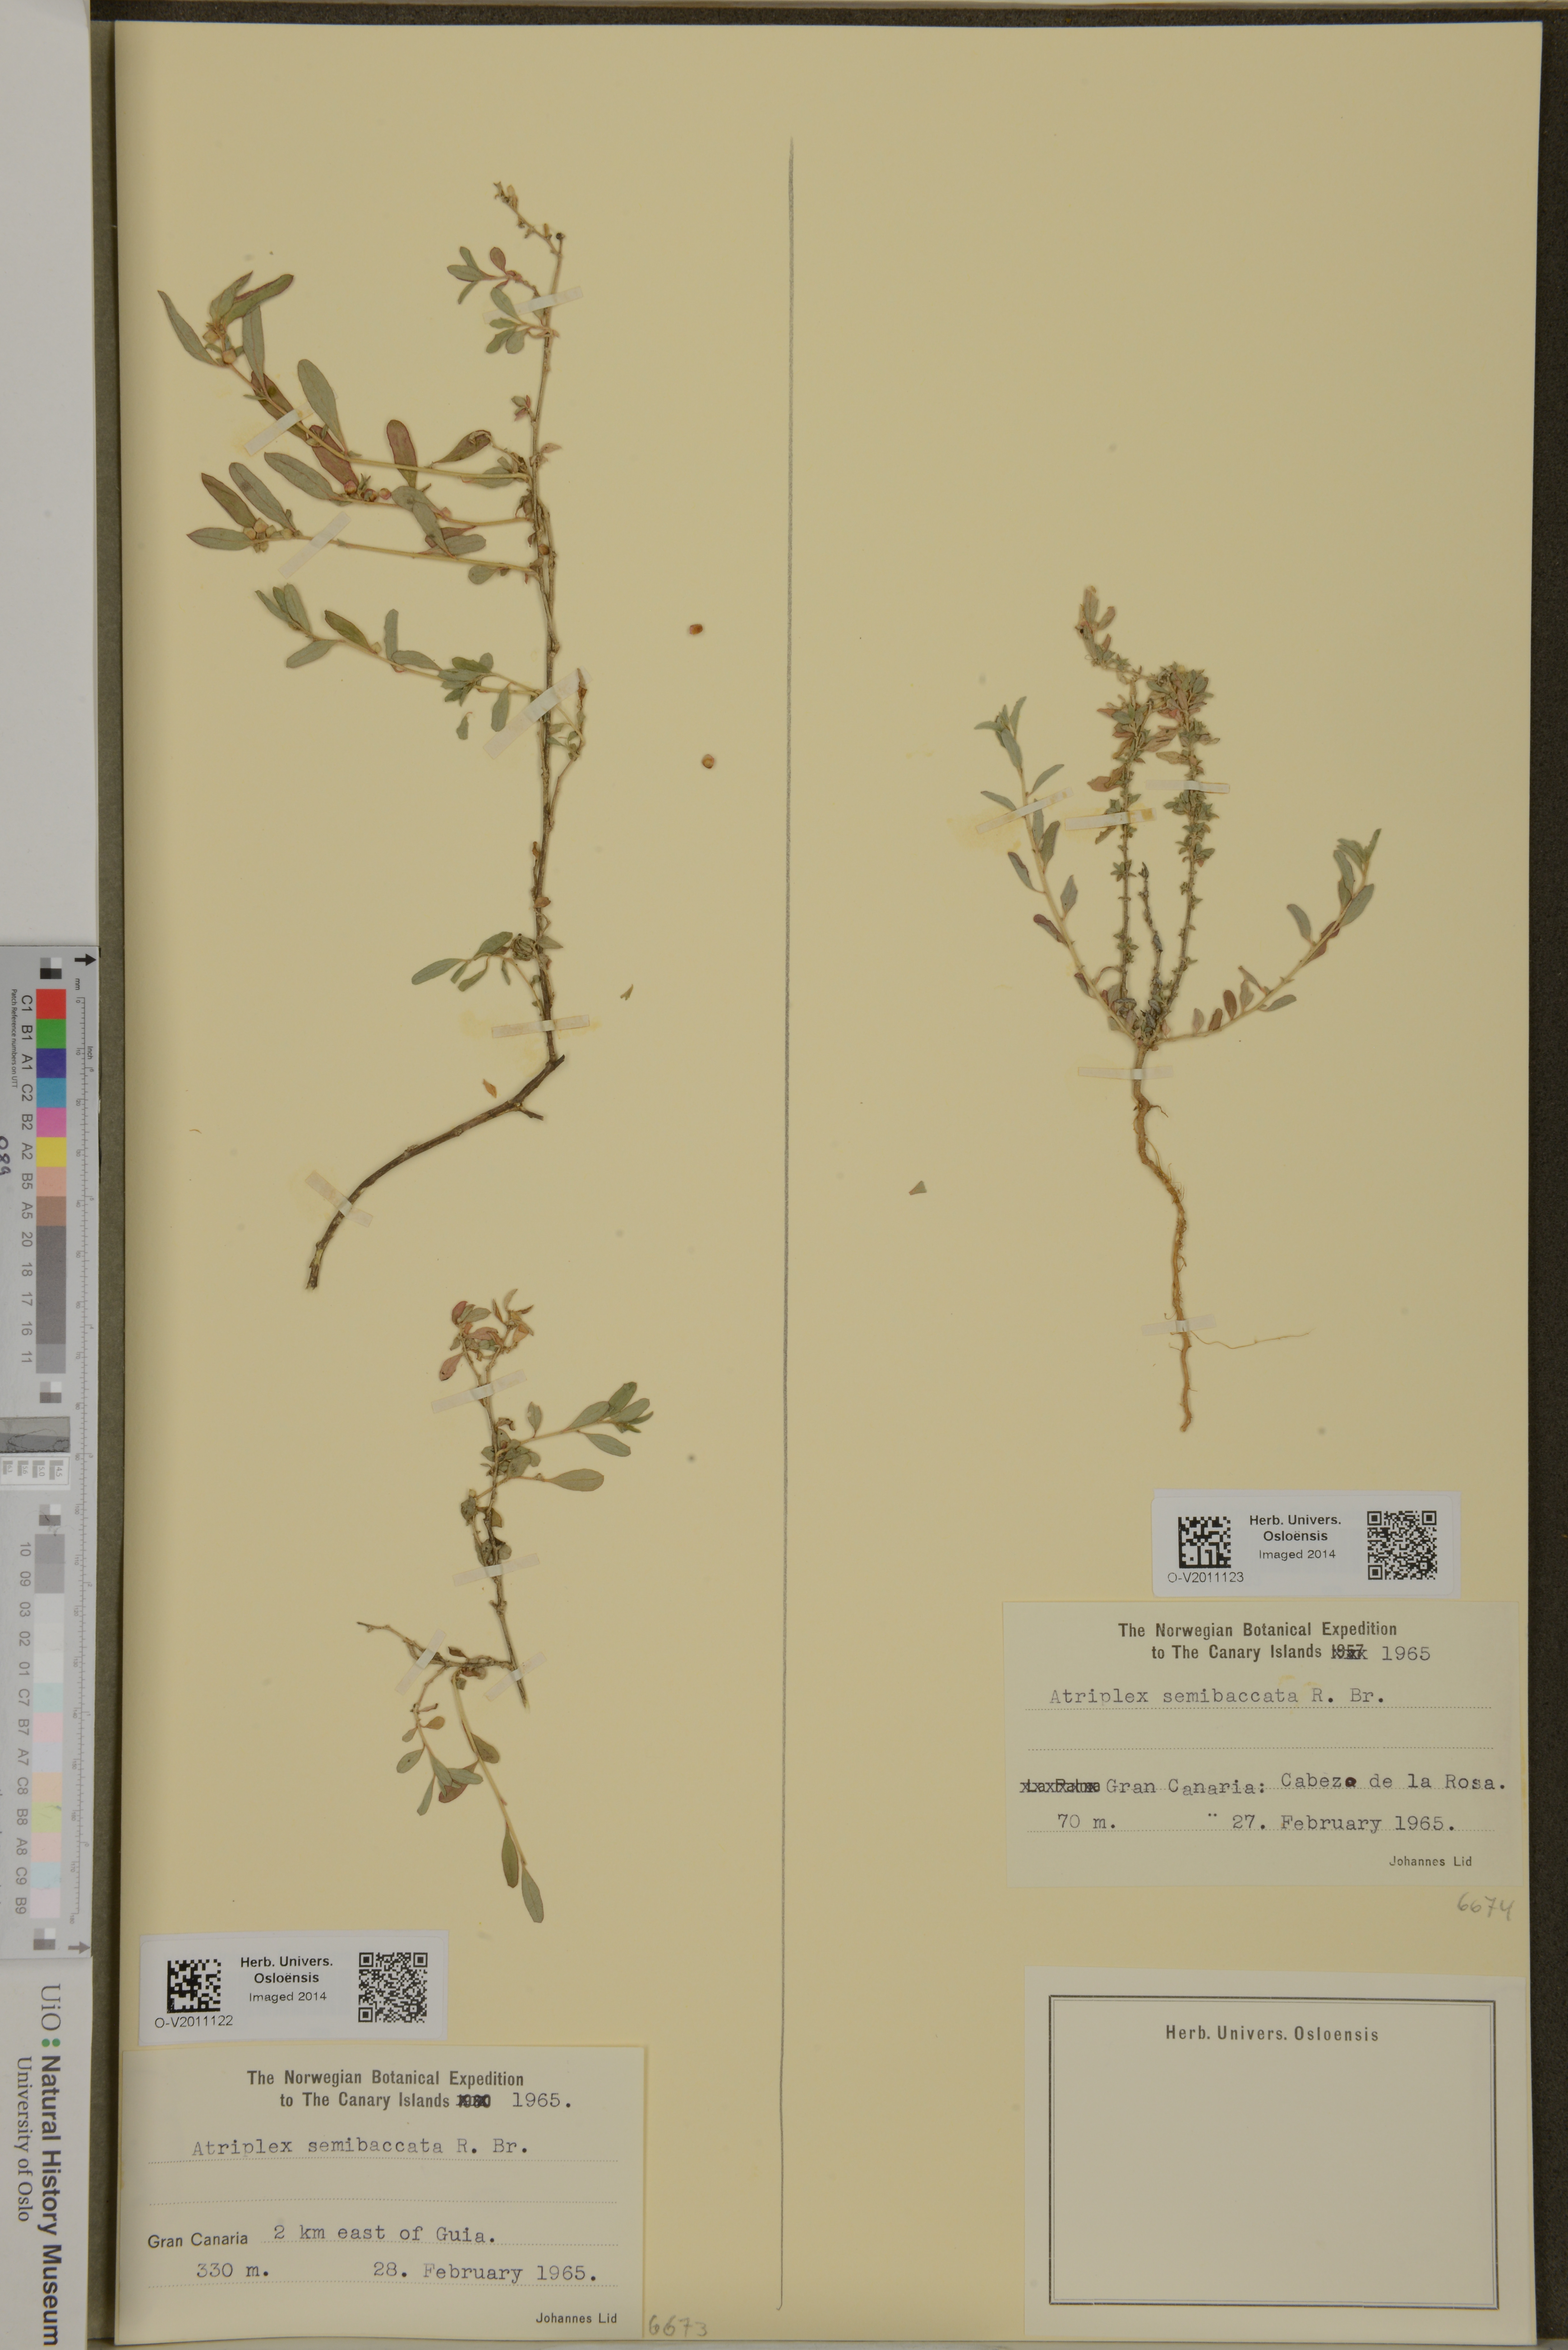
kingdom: Plantae
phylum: Tracheophyta
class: Magnoliopsida
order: Caryophyllales
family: Amaranthaceae
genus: Atriplex
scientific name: Atriplex semibaccata
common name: Australian saltbush
